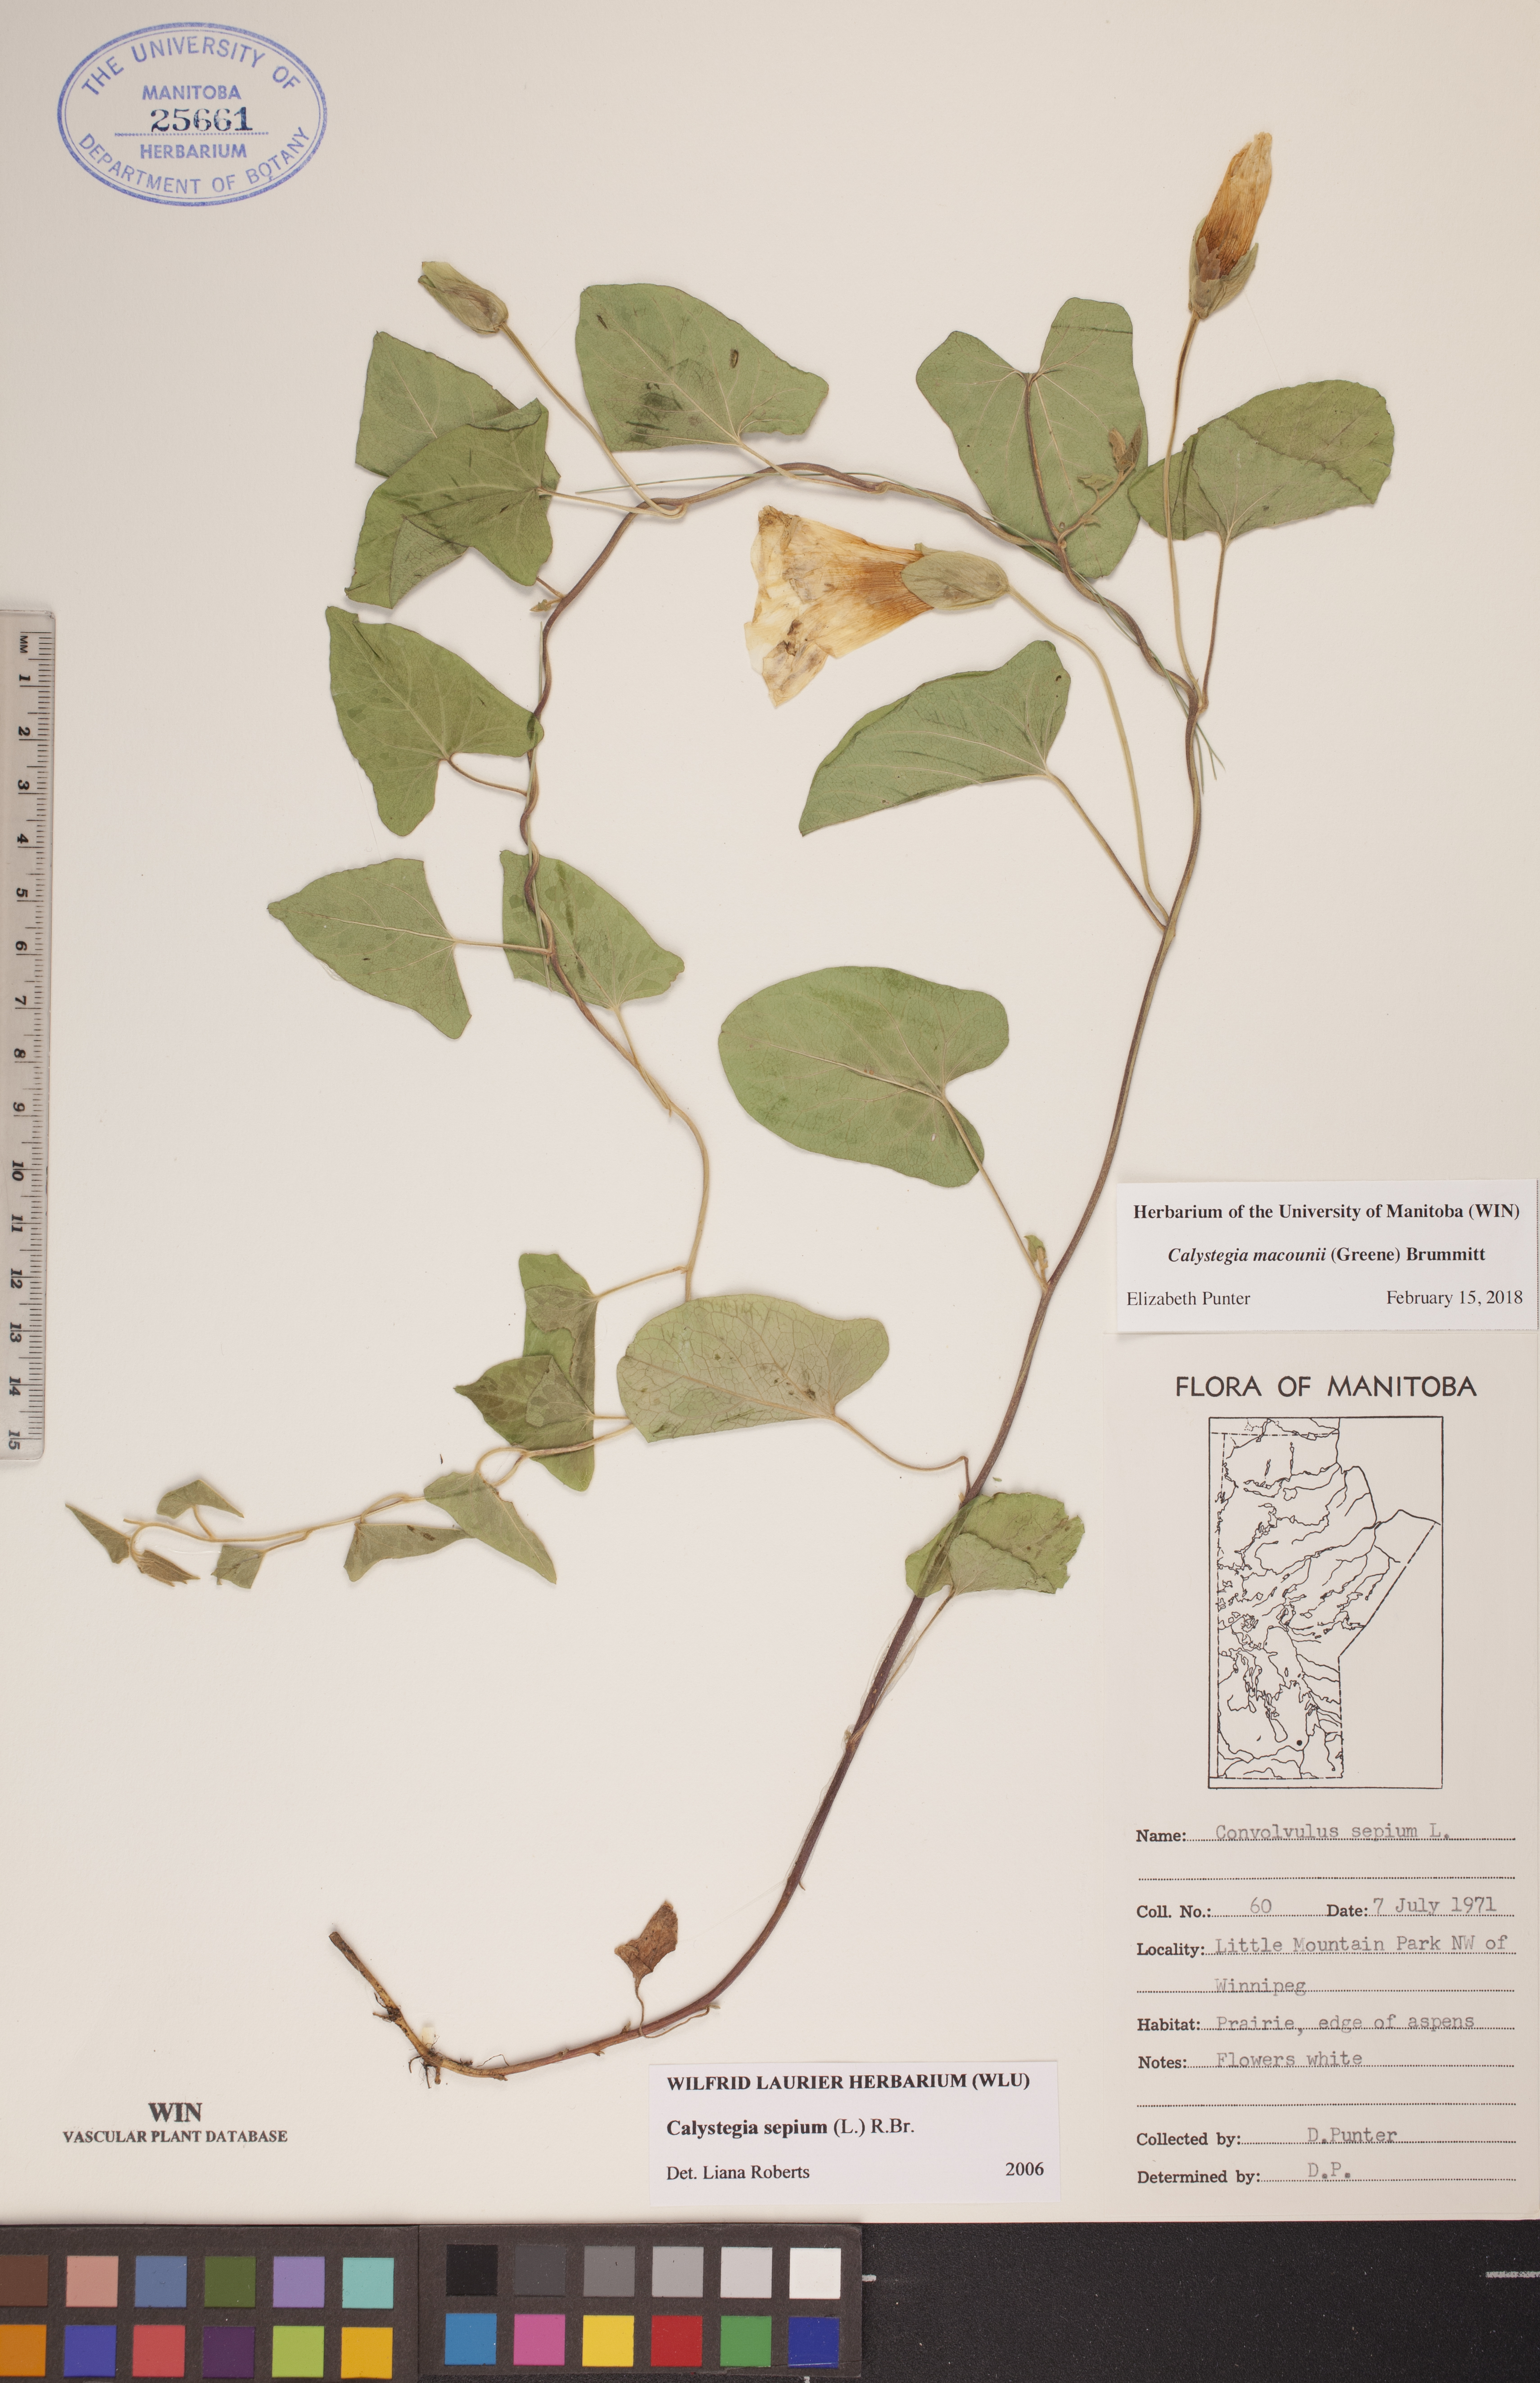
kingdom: Plantae
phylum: Tracheophyta
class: Magnoliopsida
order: Solanales
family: Convolvulaceae
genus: Calystegia
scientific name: Calystegia macounii
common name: Macoun's bindweed
